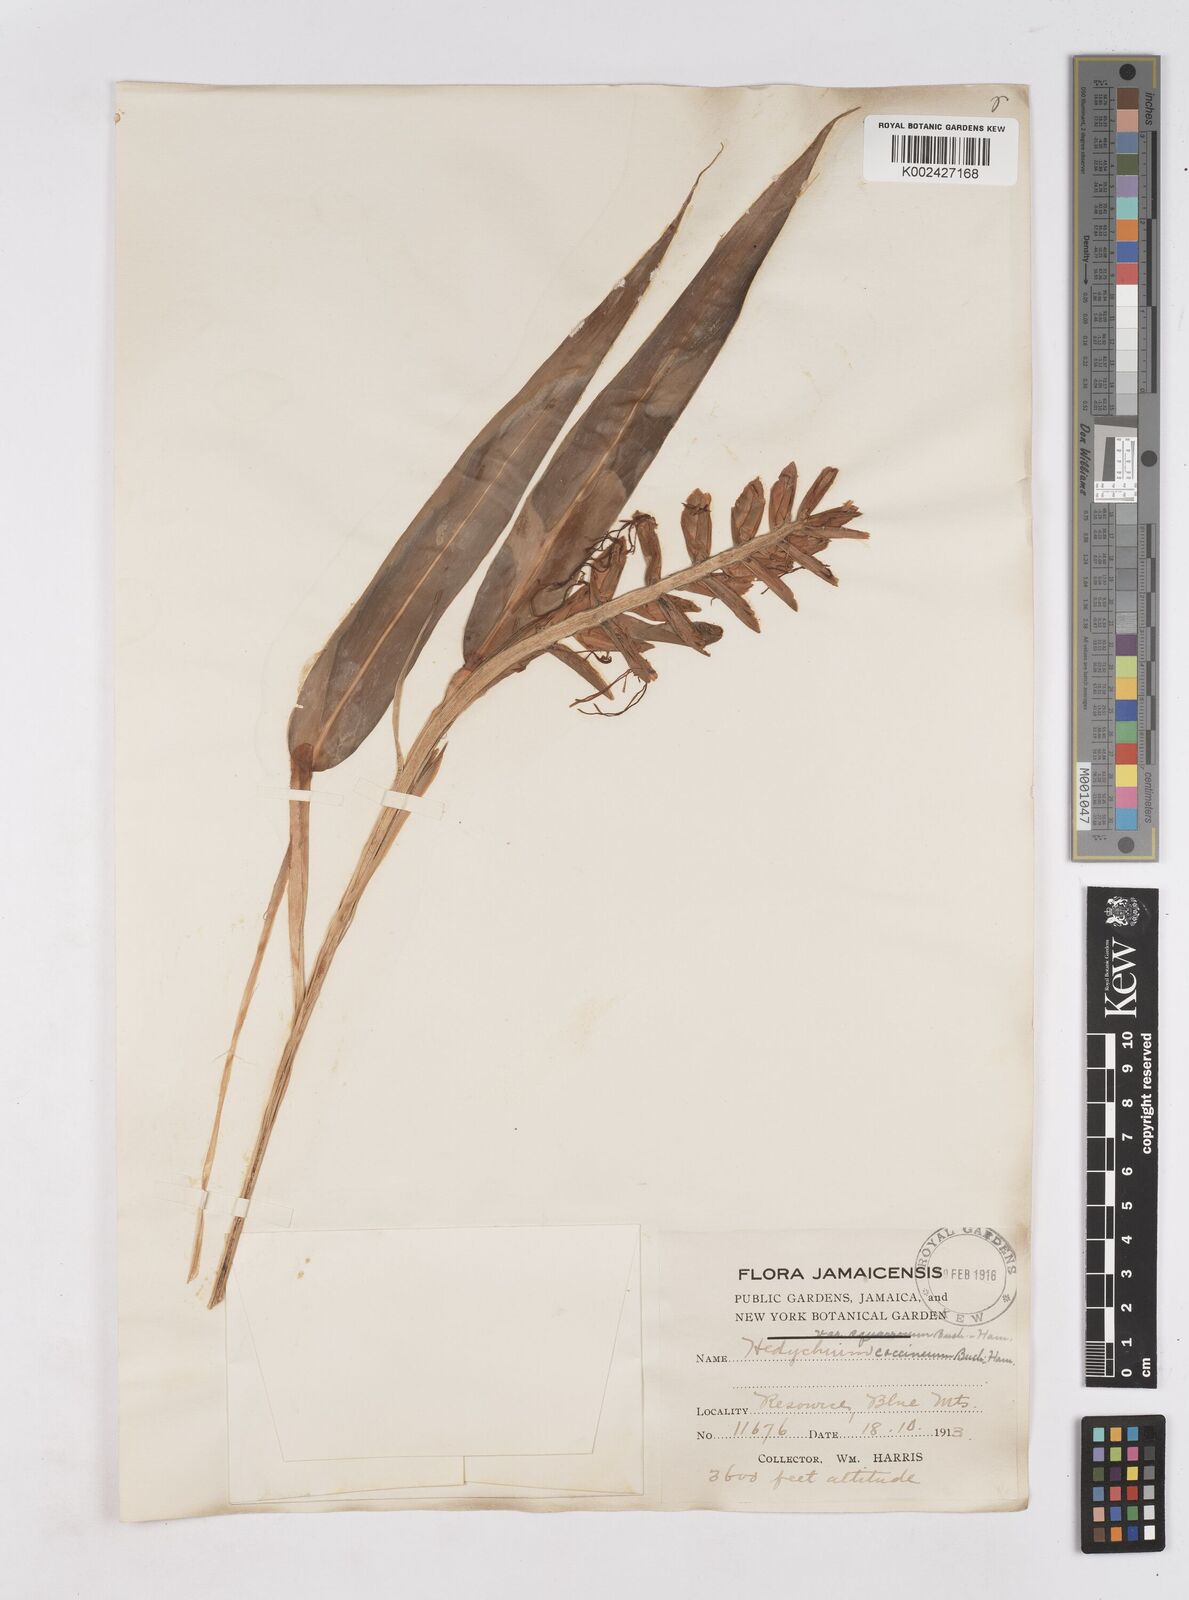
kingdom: Plantae
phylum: Tracheophyta
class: Liliopsida
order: Zingiberales
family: Zingiberaceae
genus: Hedychium
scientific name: Hedychium coccineum
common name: Red ginger-lily
